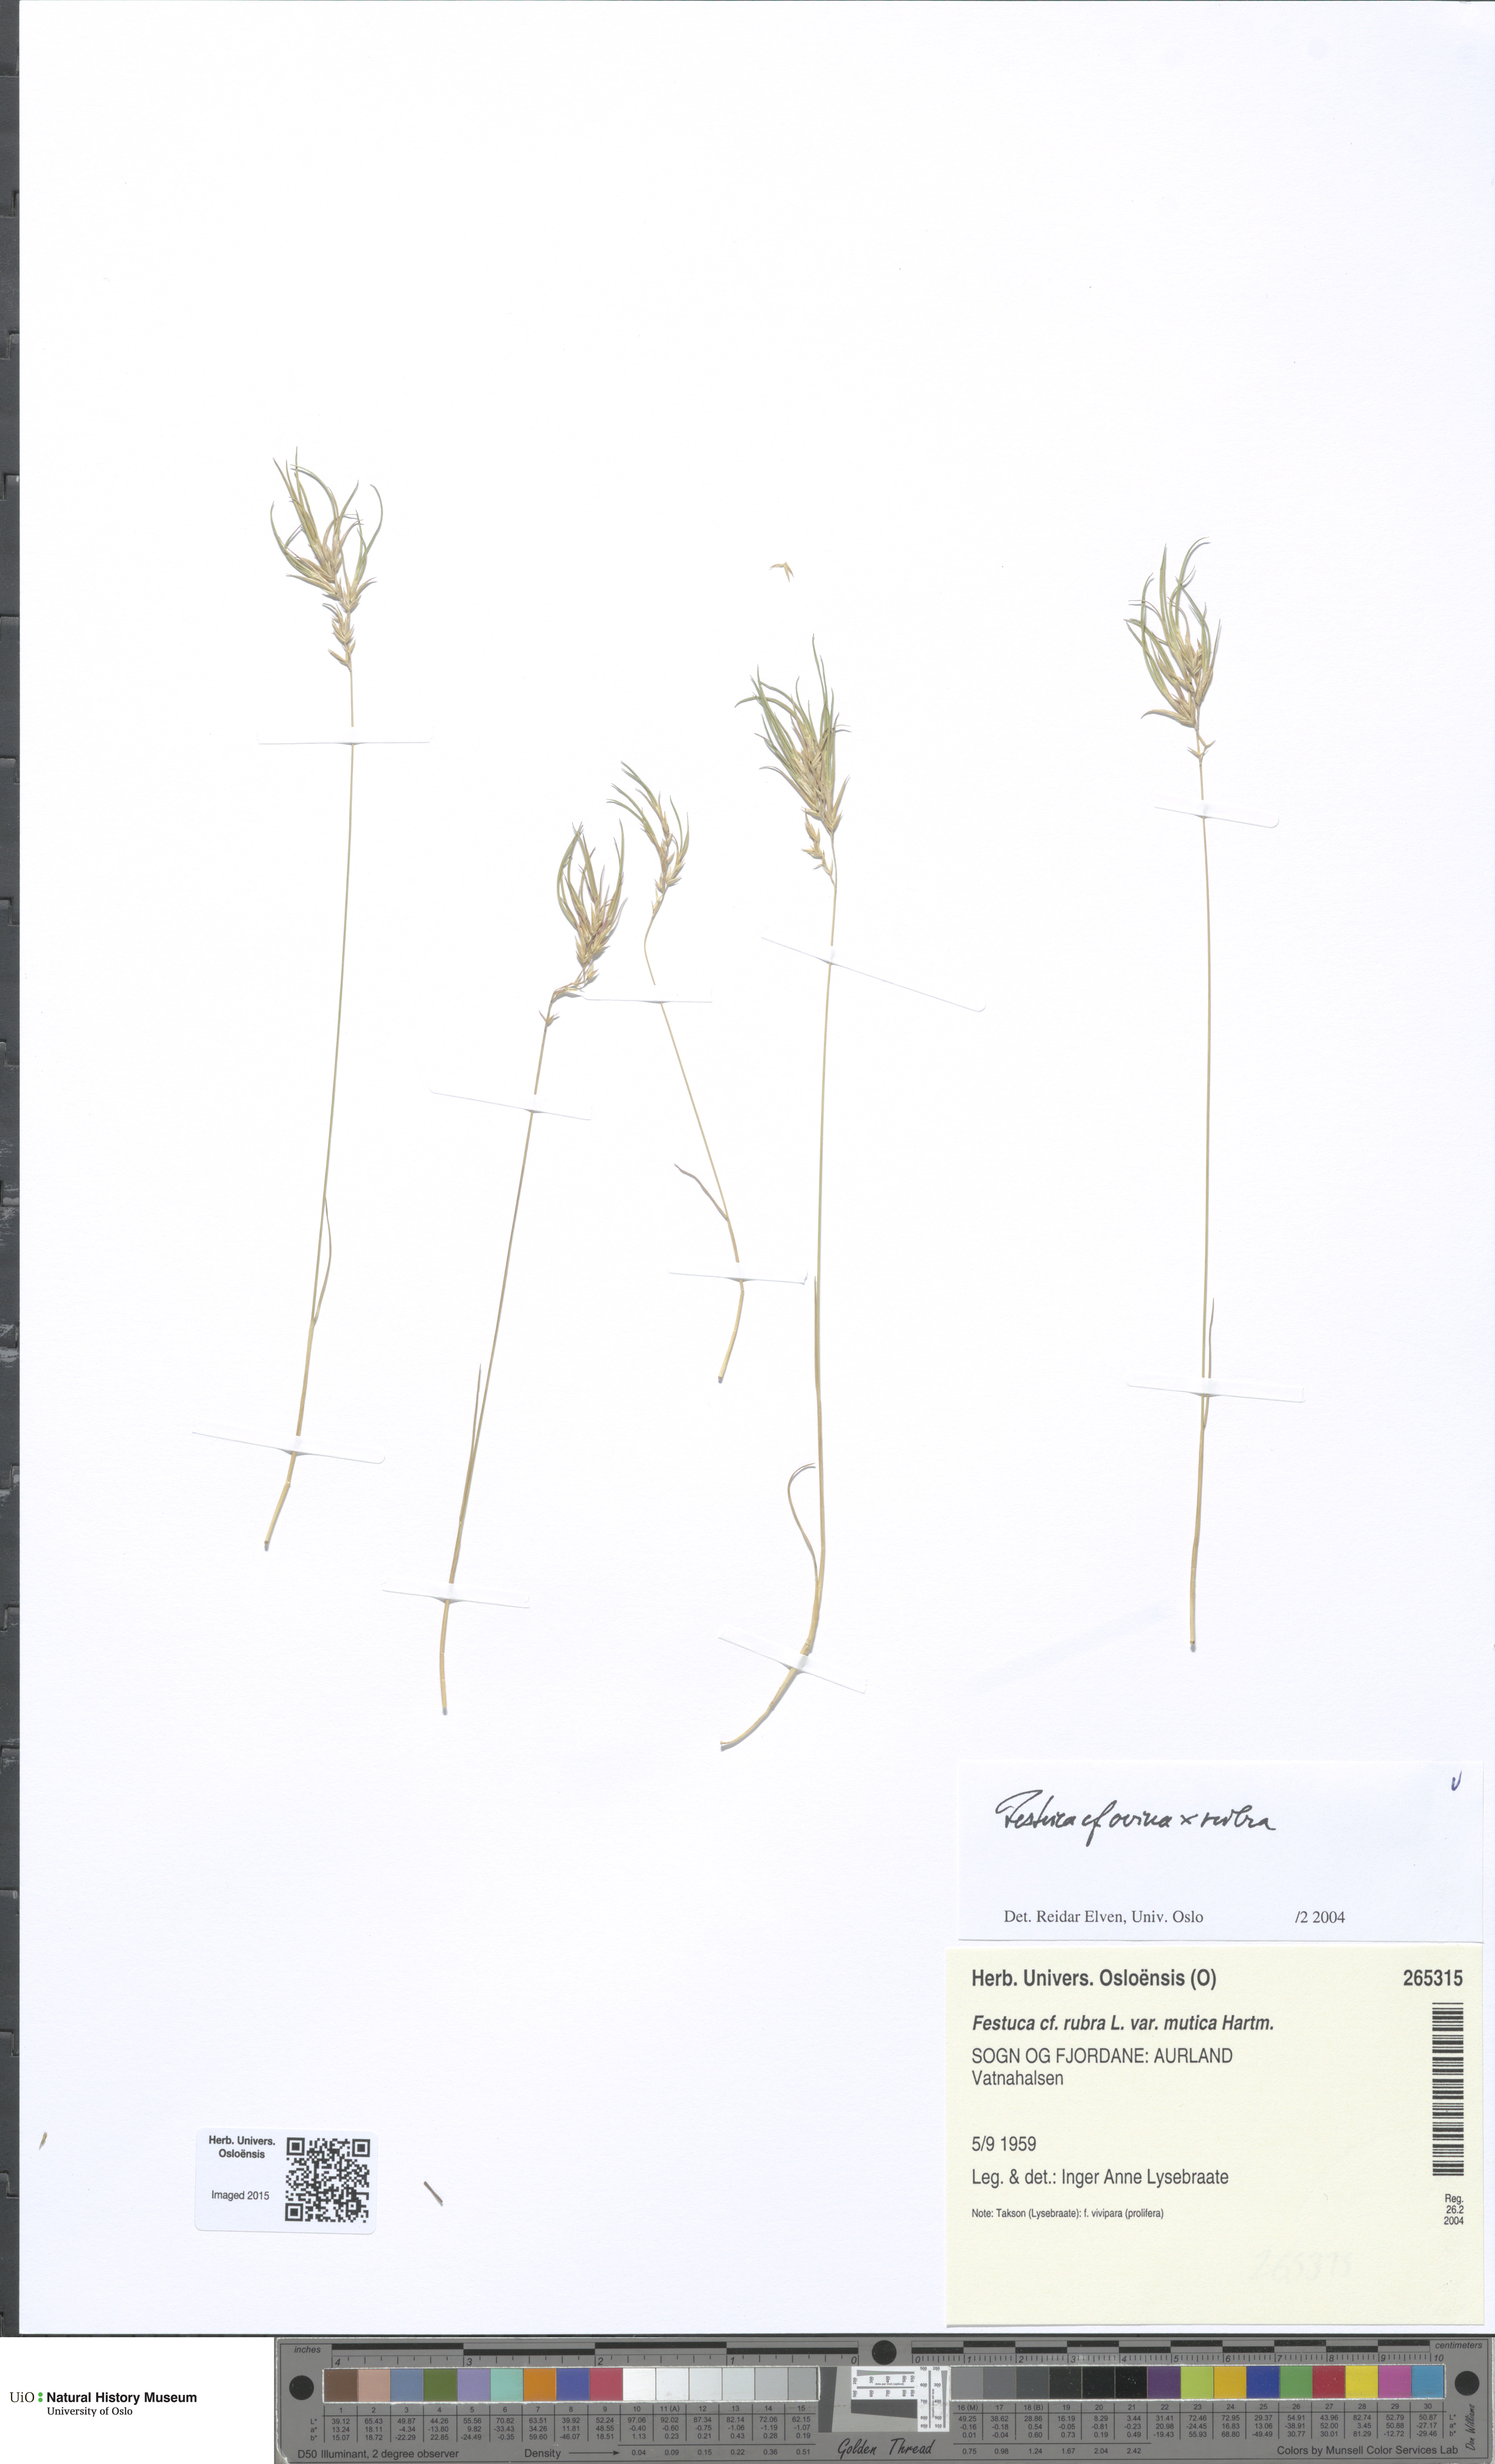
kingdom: Plantae
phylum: Tracheophyta
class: Liliopsida
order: Poales
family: Poaceae
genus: Festuca
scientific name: Festuca
